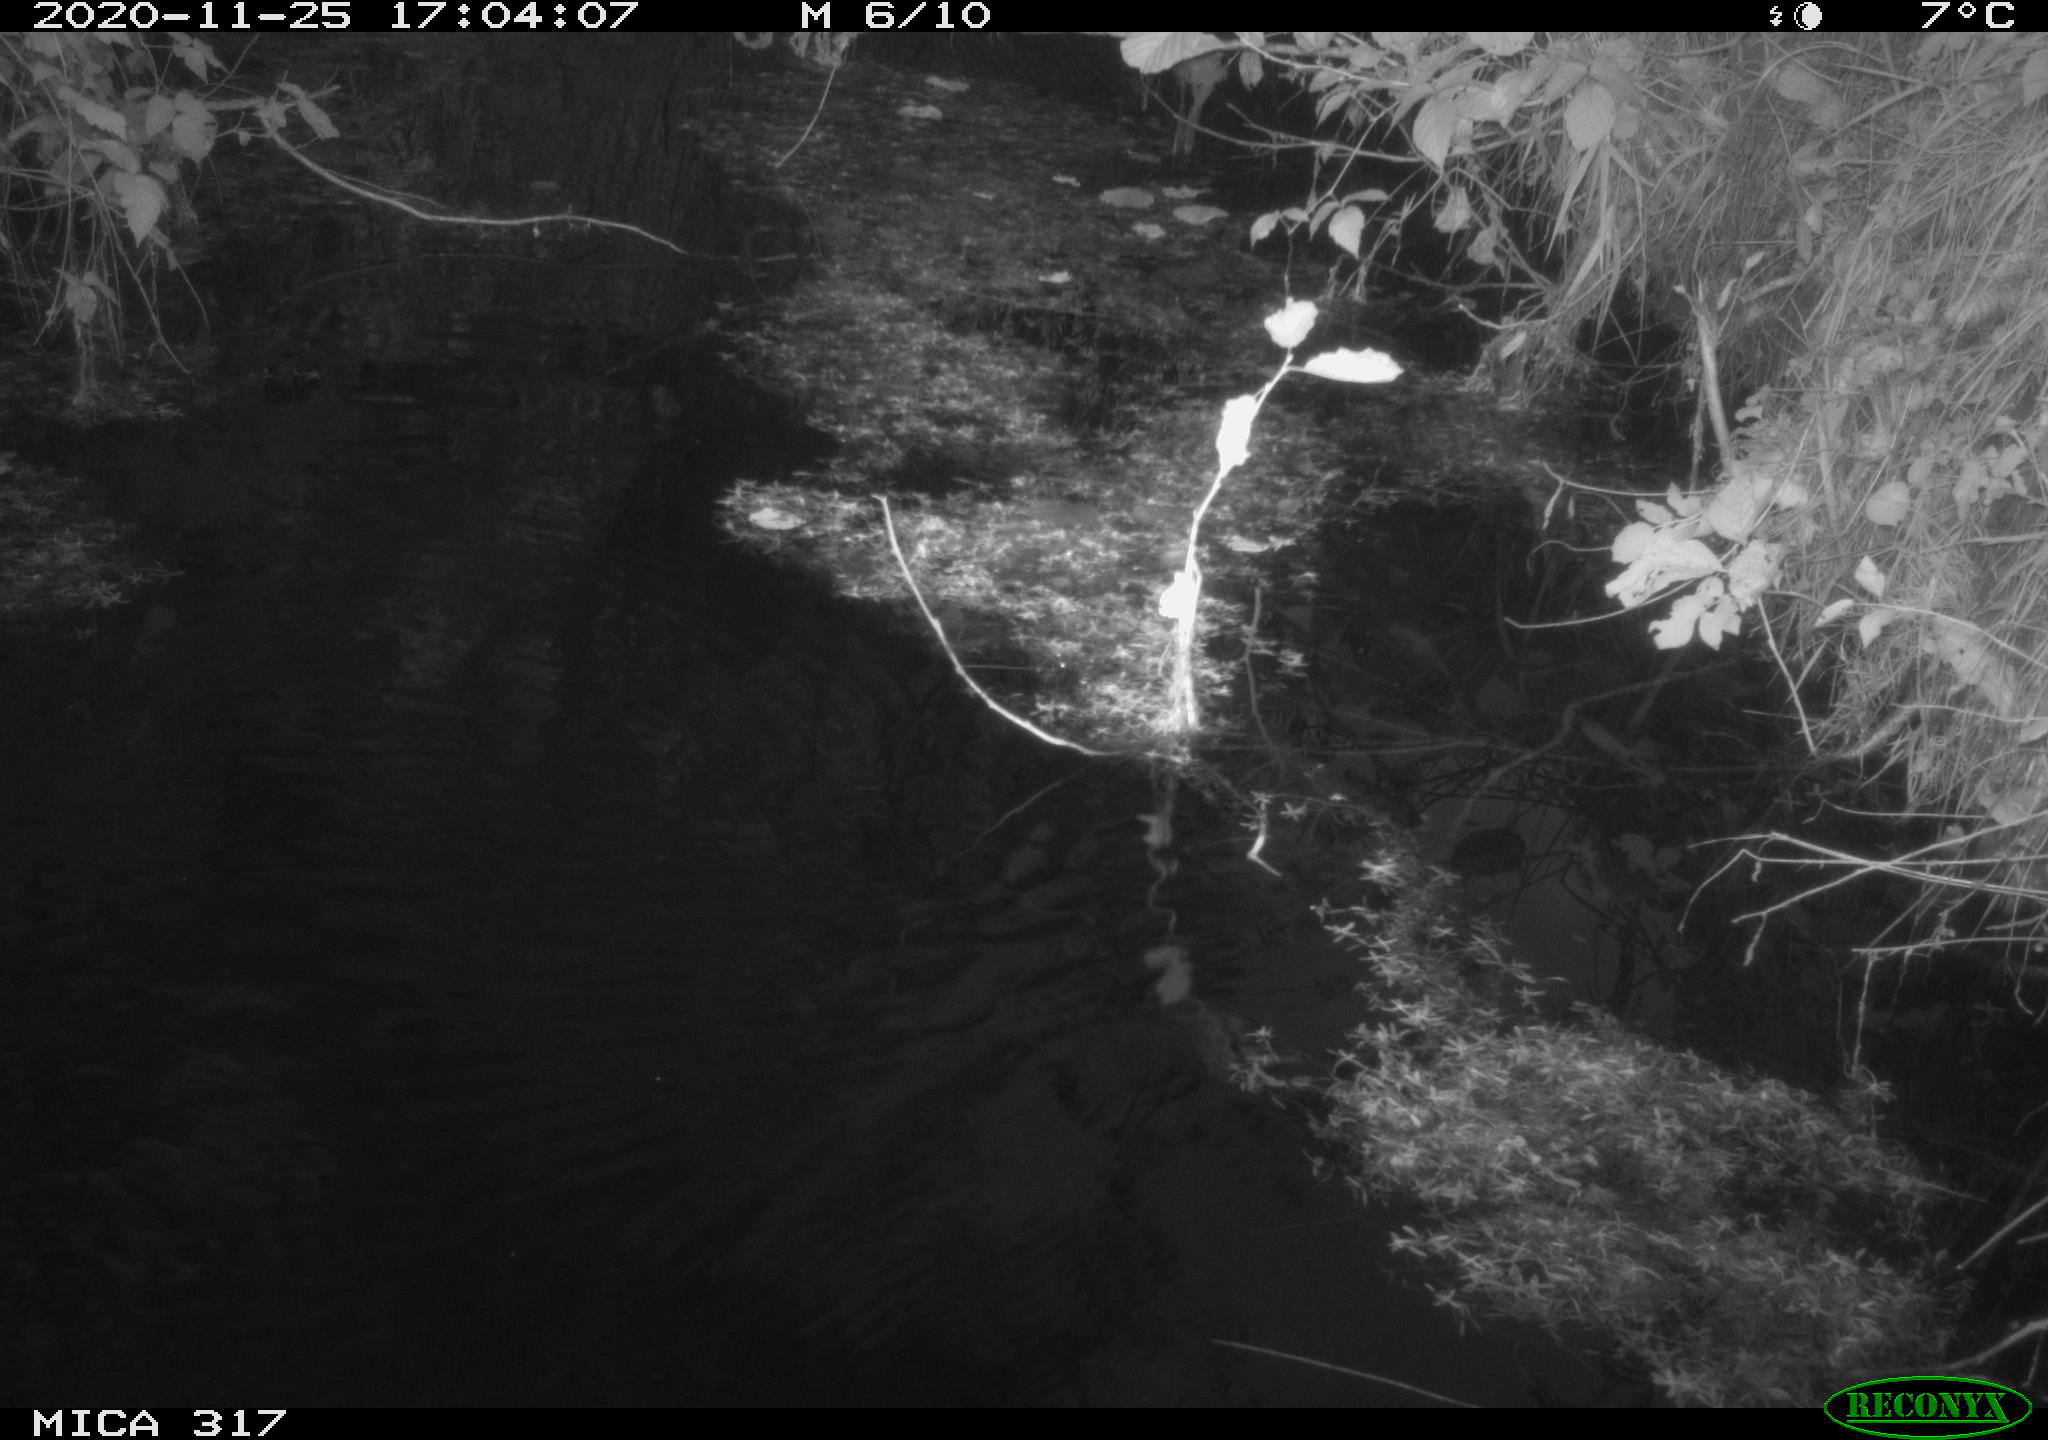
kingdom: Animalia
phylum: Chordata
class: Aves
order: Gruiformes
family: Rallidae
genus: Gallinula
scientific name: Gallinula chloropus
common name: Common moorhen
